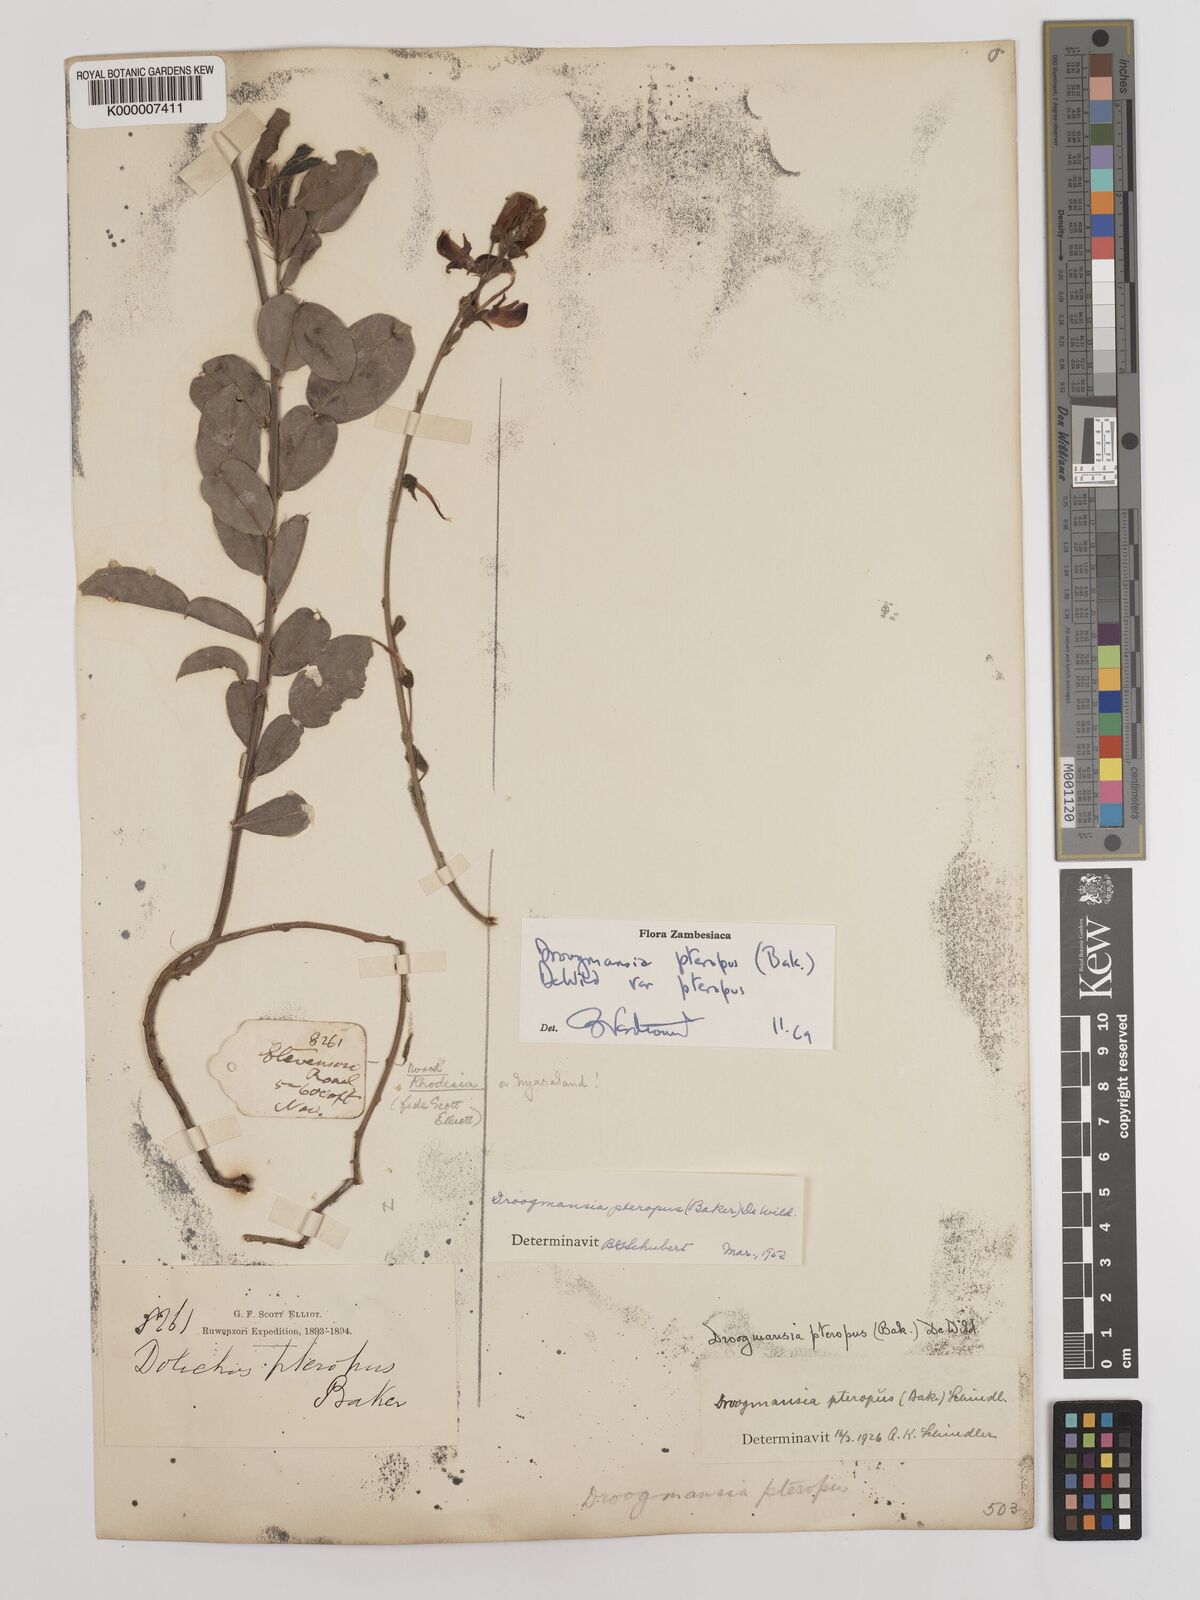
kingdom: Plantae
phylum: Tracheophyta
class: Magnoliopsida
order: Fabales
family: Fabaceae
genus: Droogmansia
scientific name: Droogmansia pteropus
